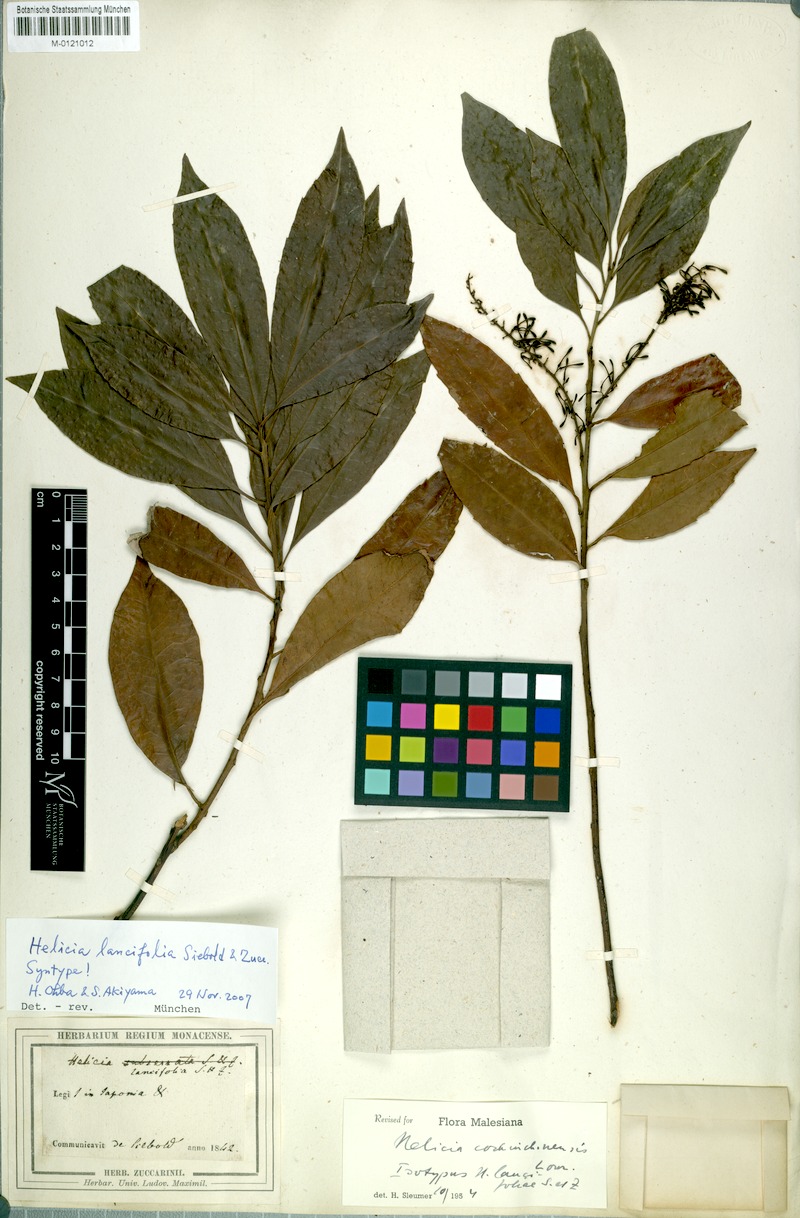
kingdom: Plantae
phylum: Tracheophyta
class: Magnoliopsida
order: Proteales
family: Proteaceae
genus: Helicia
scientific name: Helicia cochinchinensis
